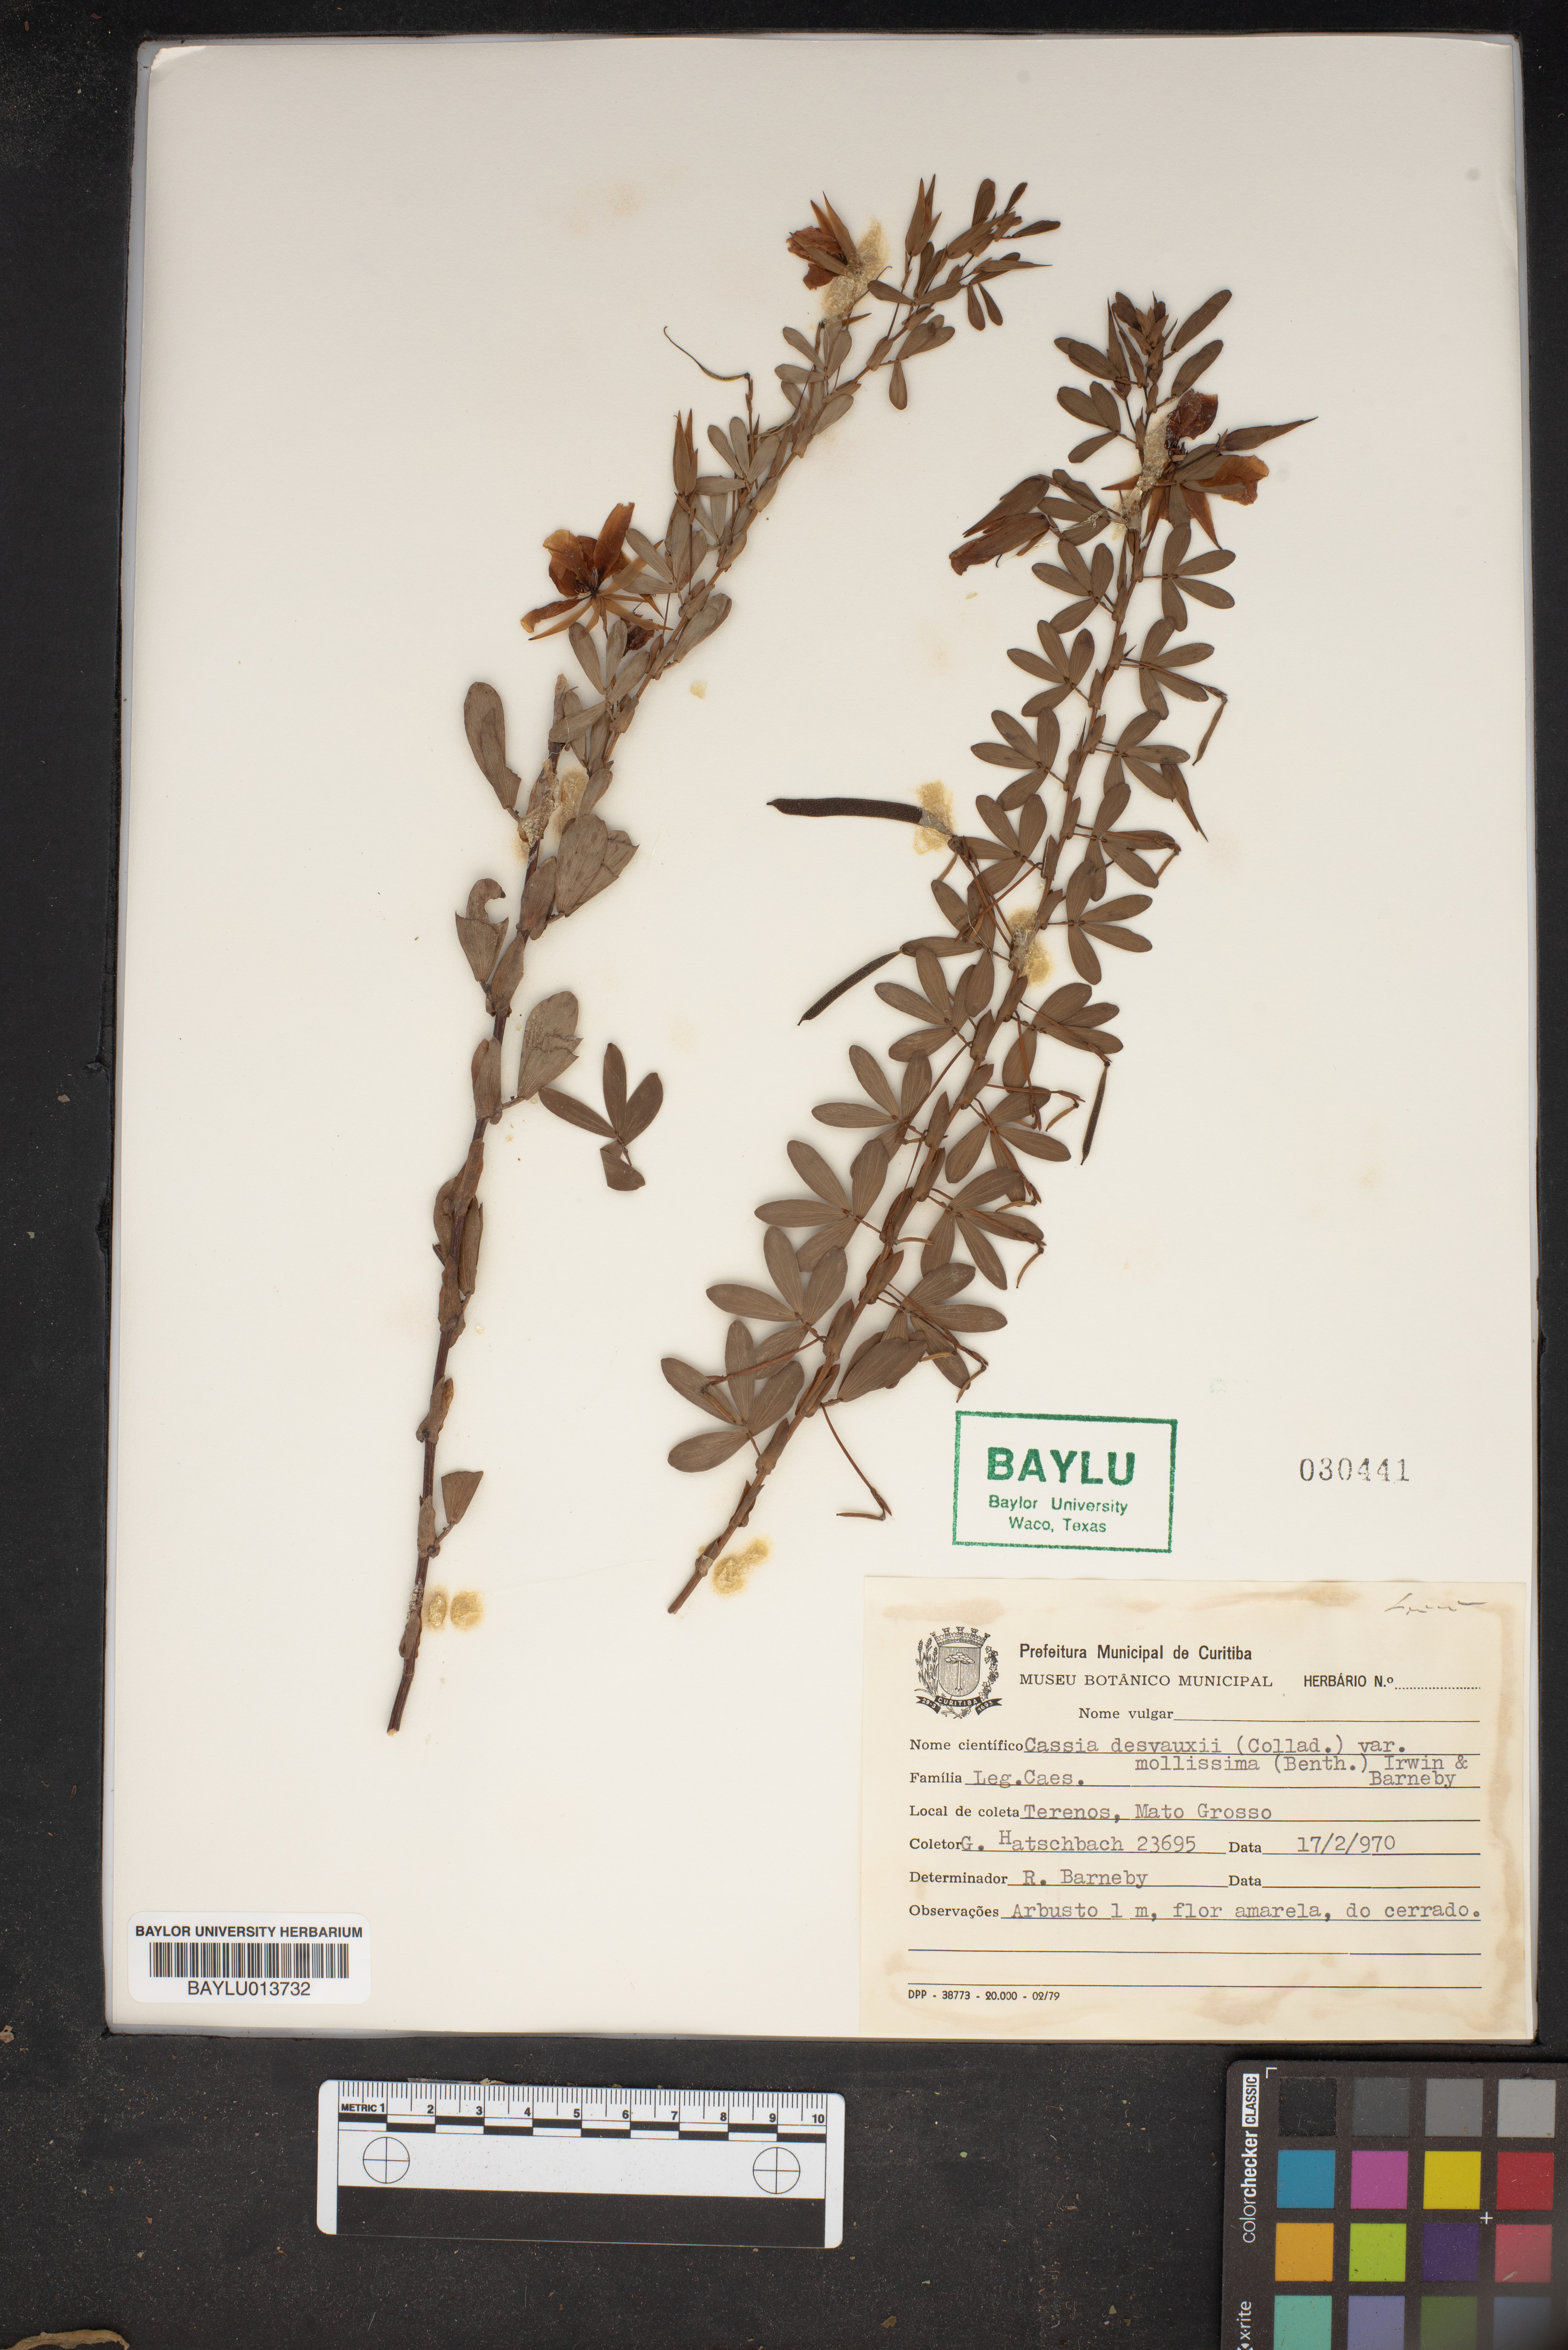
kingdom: Plantae
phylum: Tracheophyta
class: Magnoliopsida
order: Fabales
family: Fabaceae
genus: Chamaecrista
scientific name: Chamaecrista desvauxii
